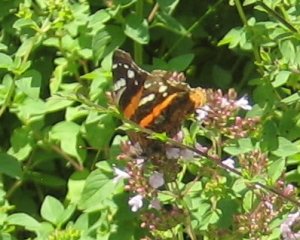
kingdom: Animalia
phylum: Arthropoda
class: Insecta
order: Lepidoptera
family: Nymphalidae
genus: Vanessa
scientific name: Vanessa atalanta
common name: Red Admiral
